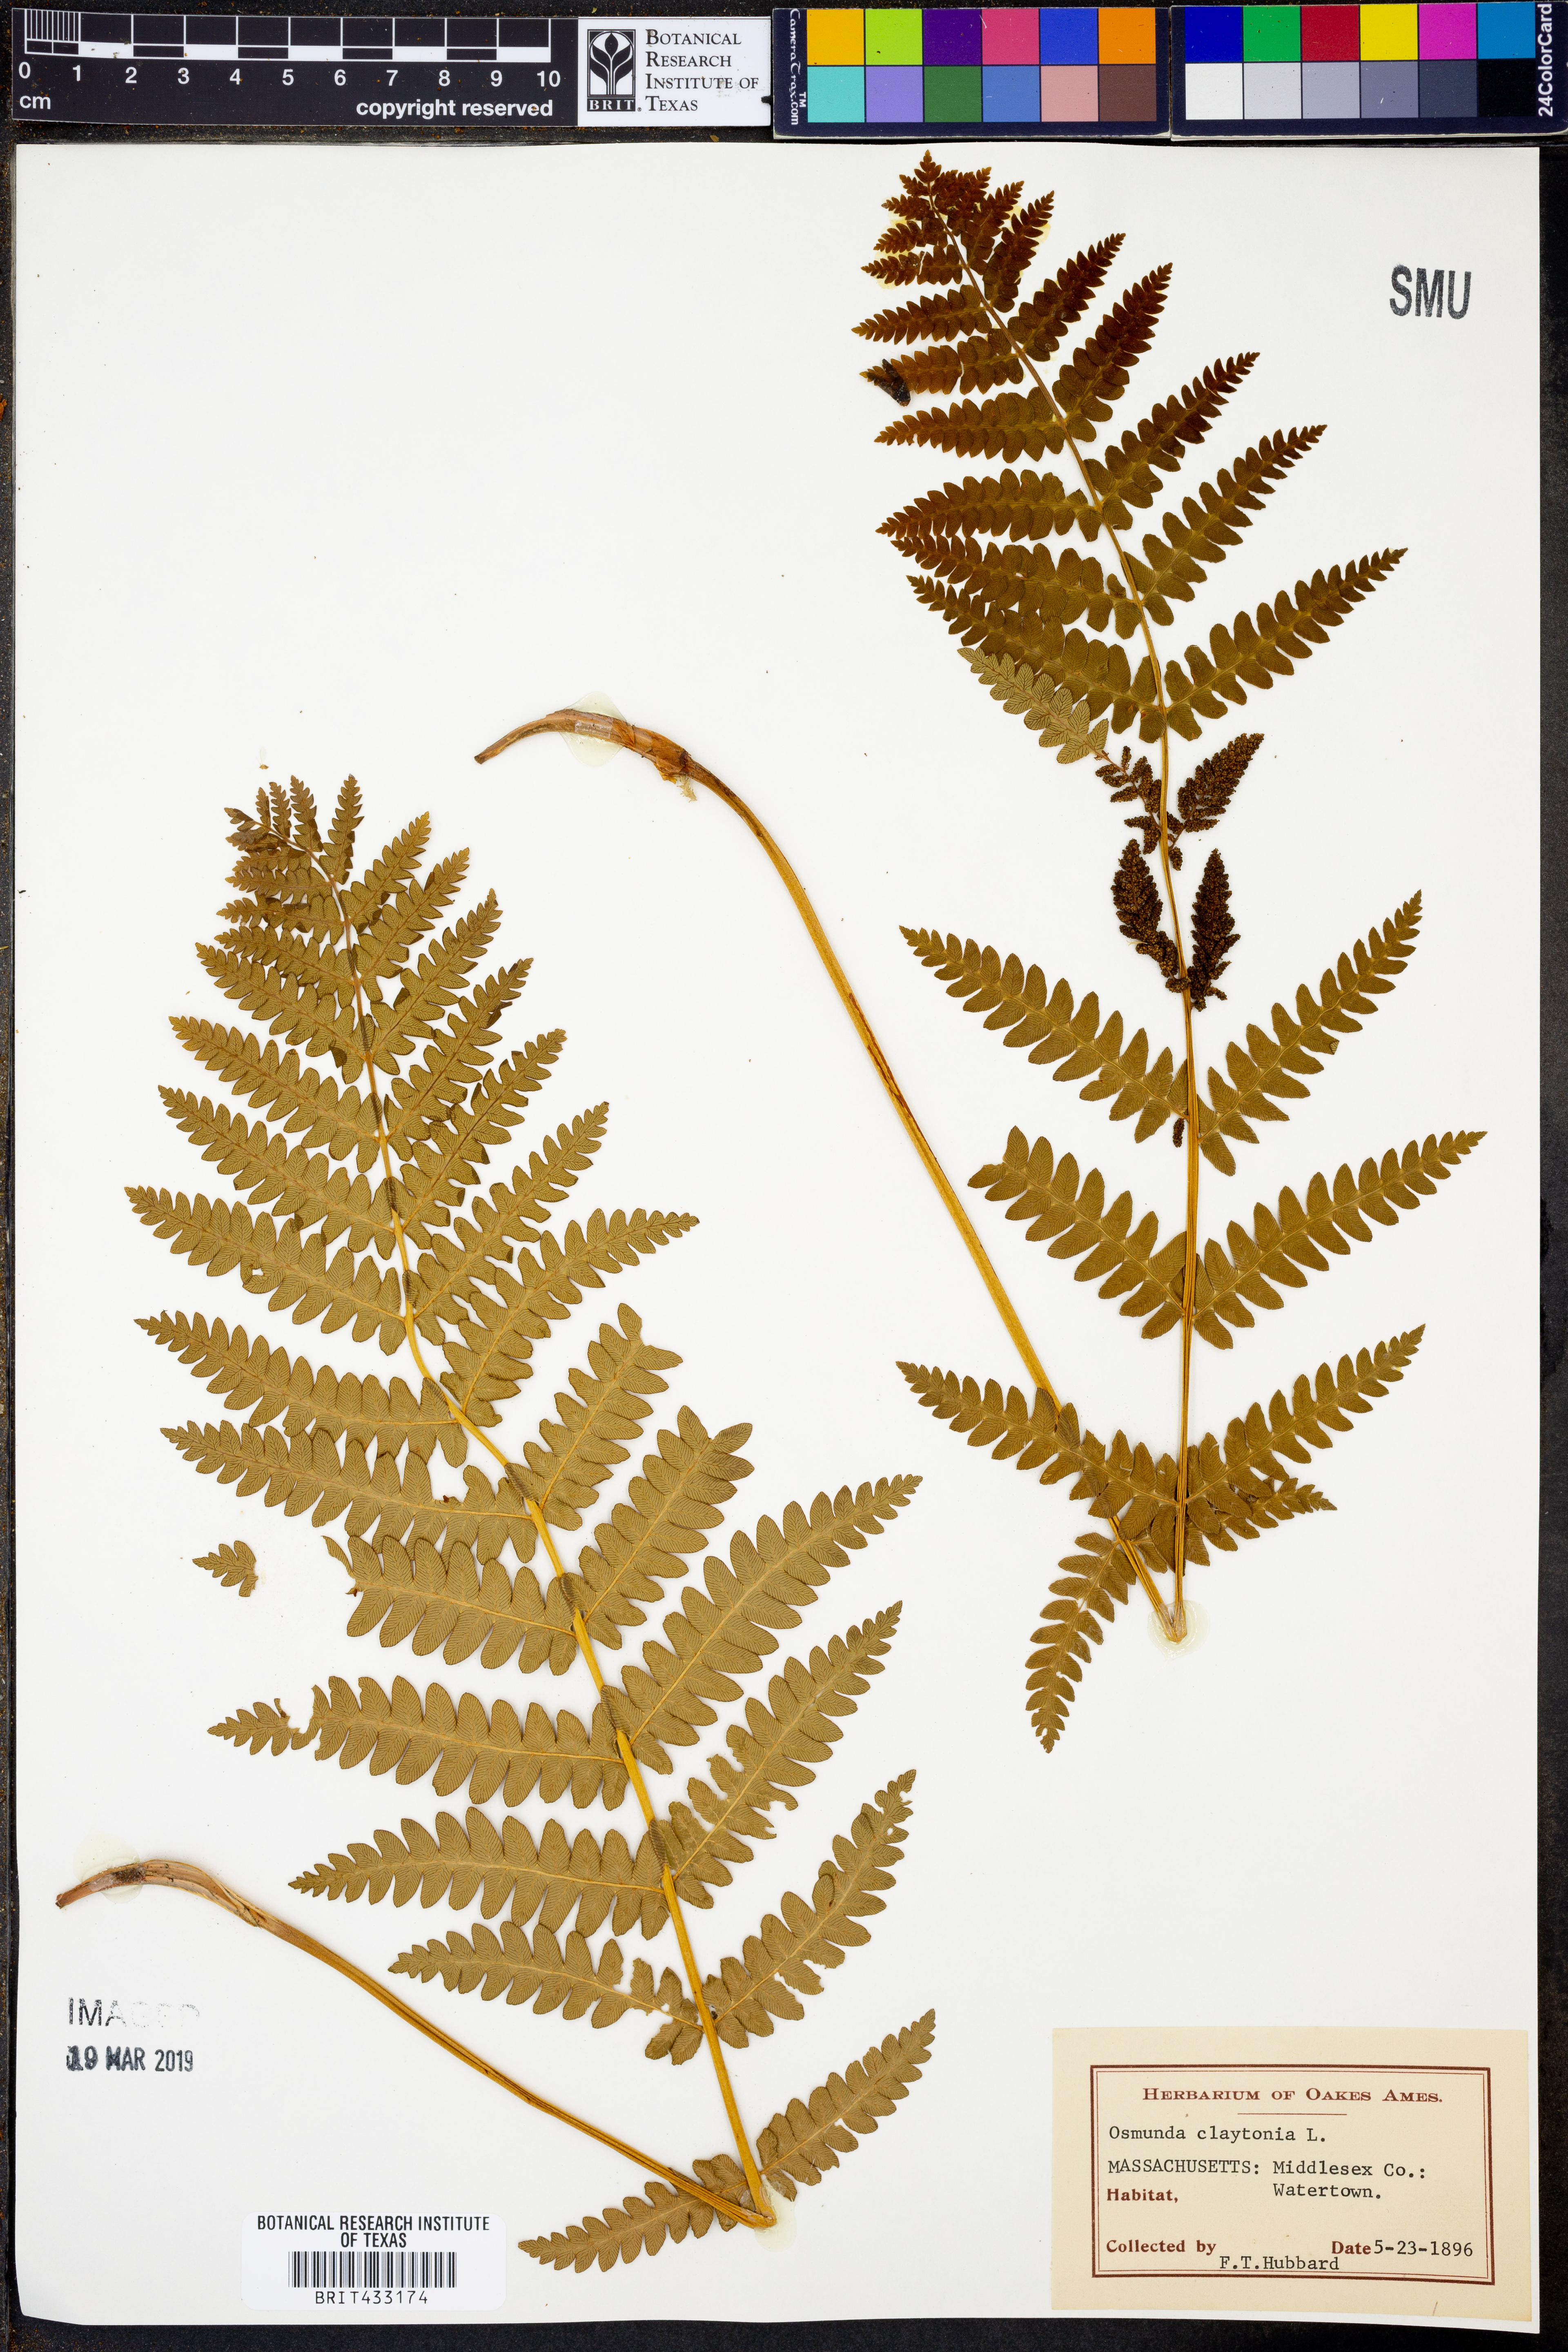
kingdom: Plantae
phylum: Tracheophyta
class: Polypodiopsida
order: Osmundales
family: Osmundaceae
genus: Claytosmunda
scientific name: Claytosmunda claytoniana
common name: Clayton's fern
